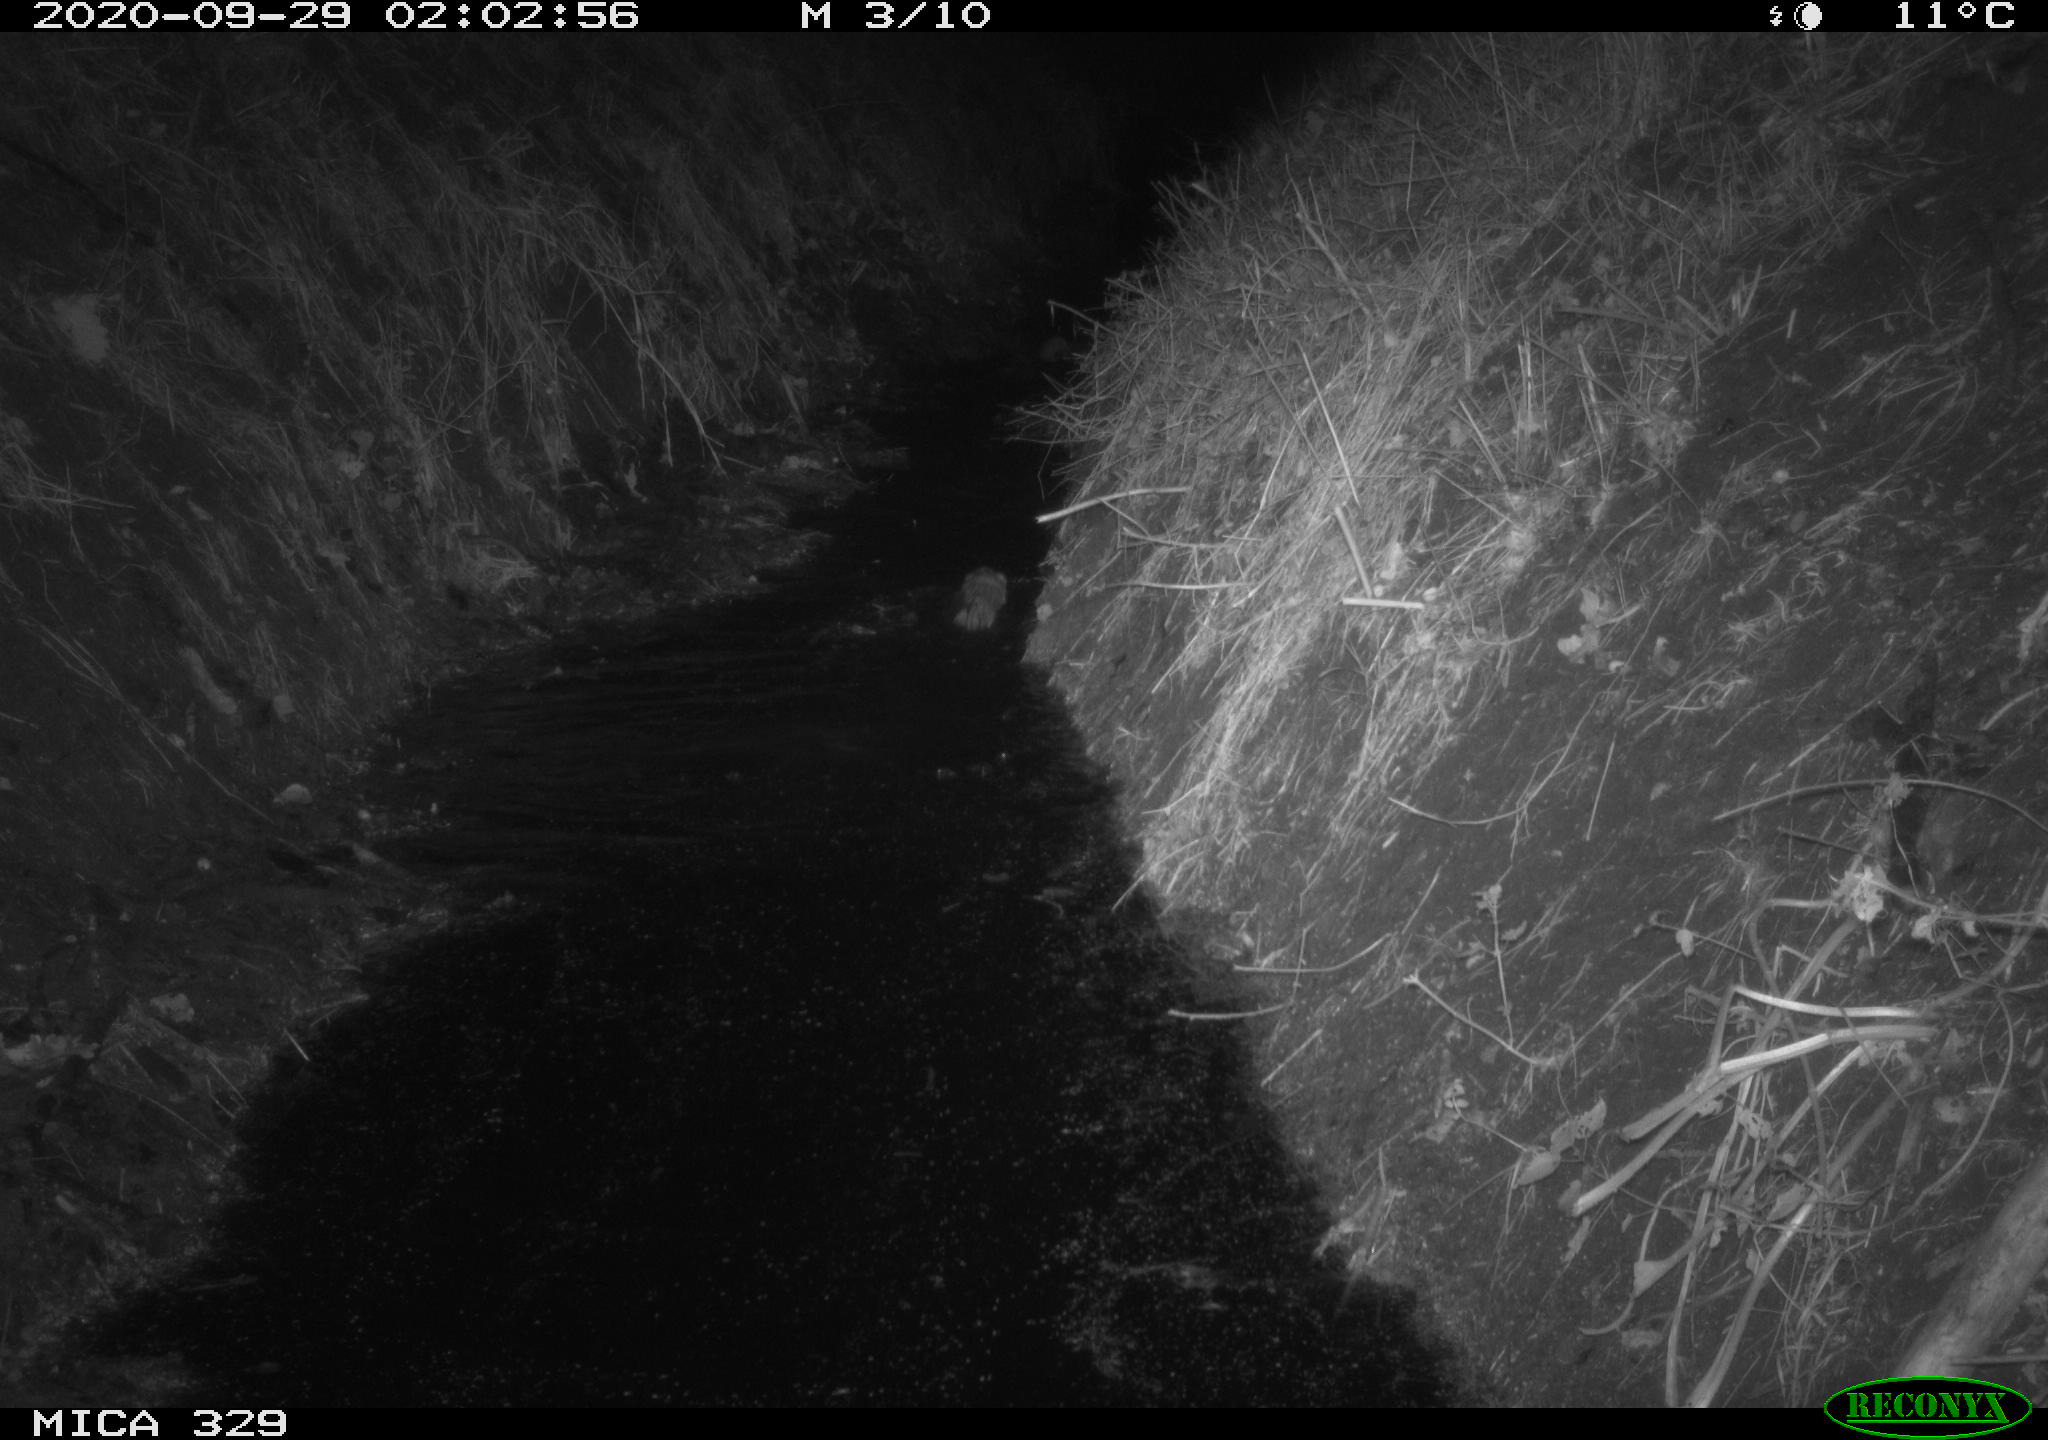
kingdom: Animalia
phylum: Chordata
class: Mammalia
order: Rodentia
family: Myocastoridae
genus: Myocastor
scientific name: Myocastor coypus
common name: Coypu
